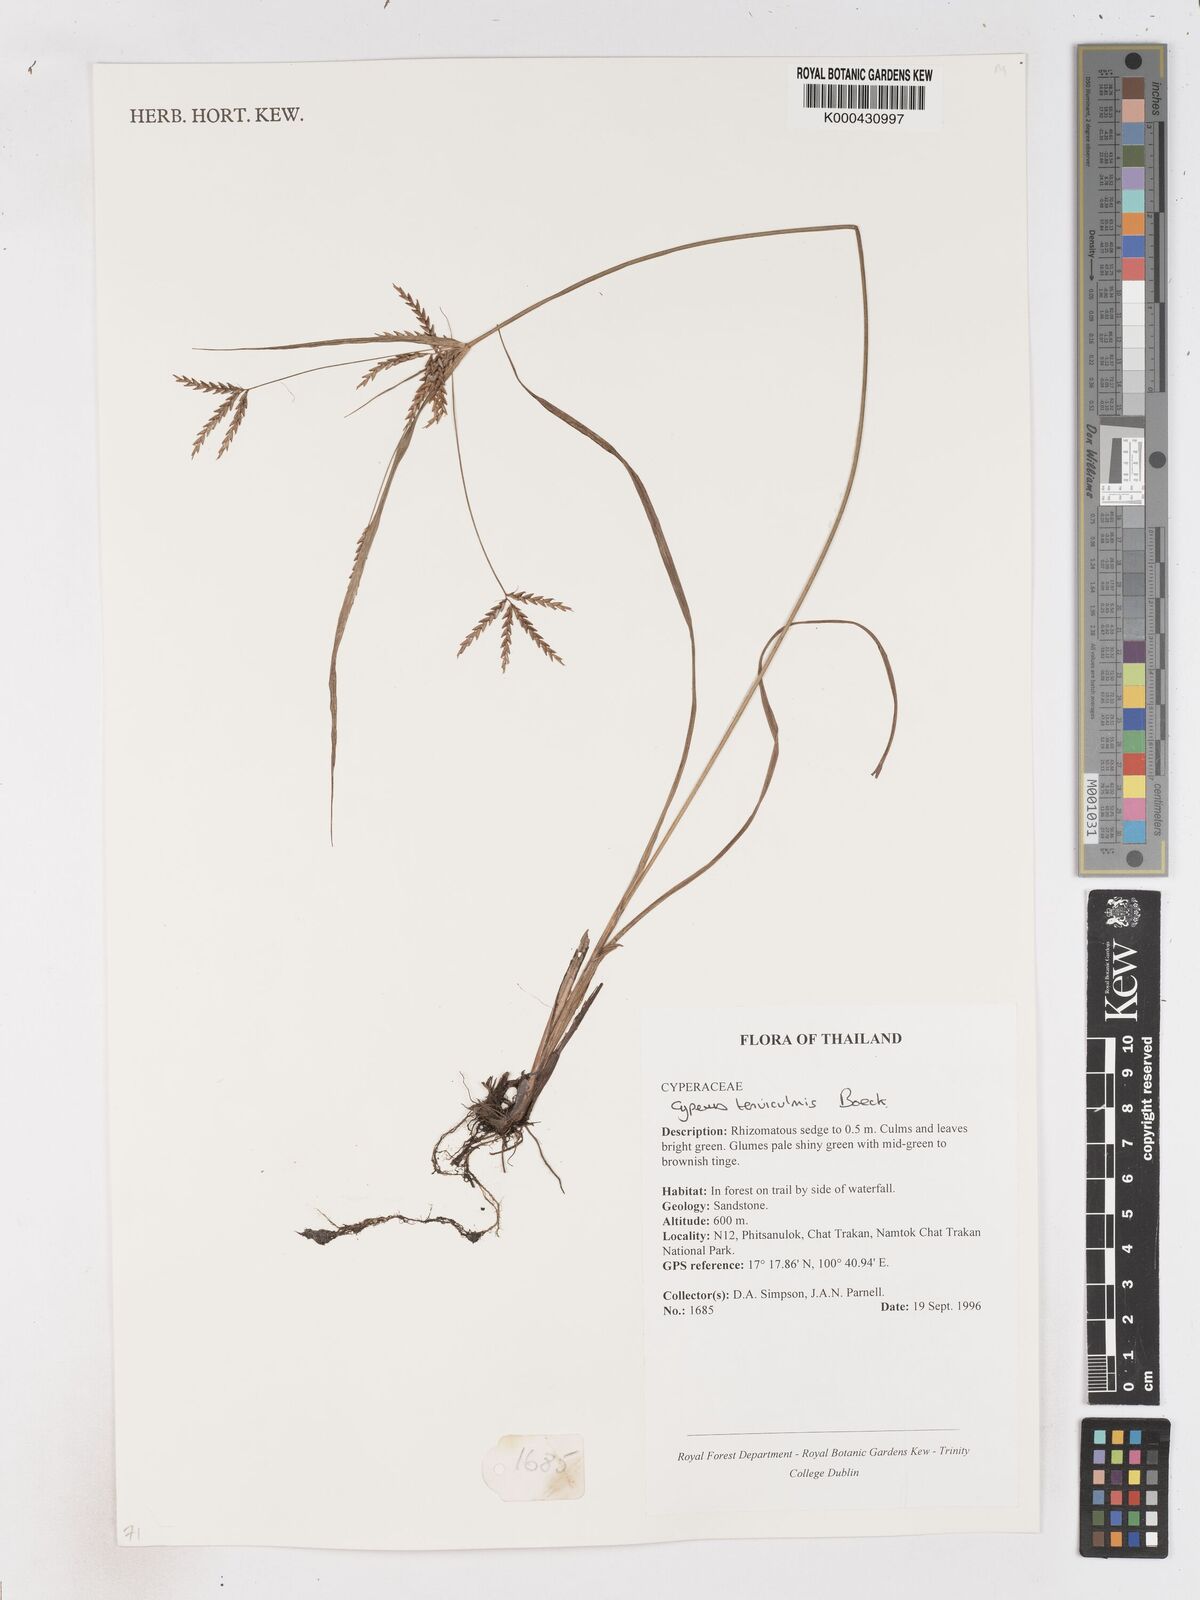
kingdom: Plantae
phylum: Tracheophyta
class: Liliopsida
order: Poales
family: Cyperaceae
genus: Cyperus
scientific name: Cyperus tenuiculmis
